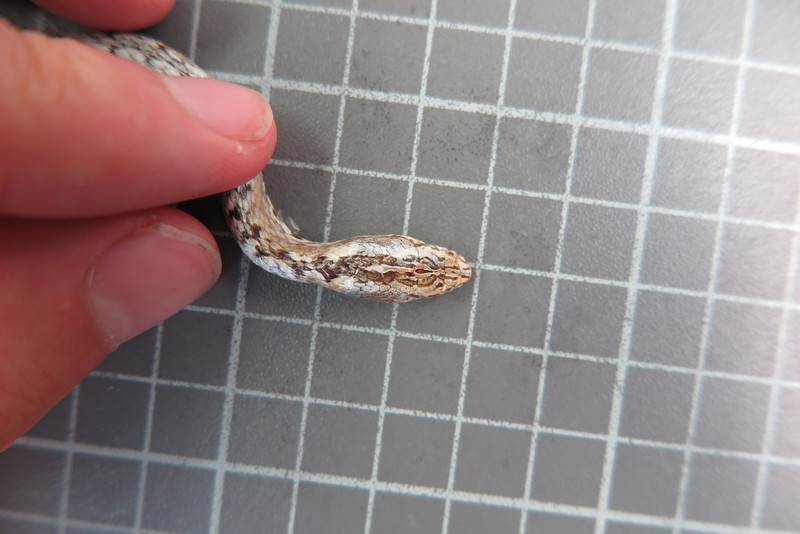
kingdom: Animalia
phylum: Chordata
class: Squamata
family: Psammophiidae
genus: Mimophis
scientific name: Mimophis
